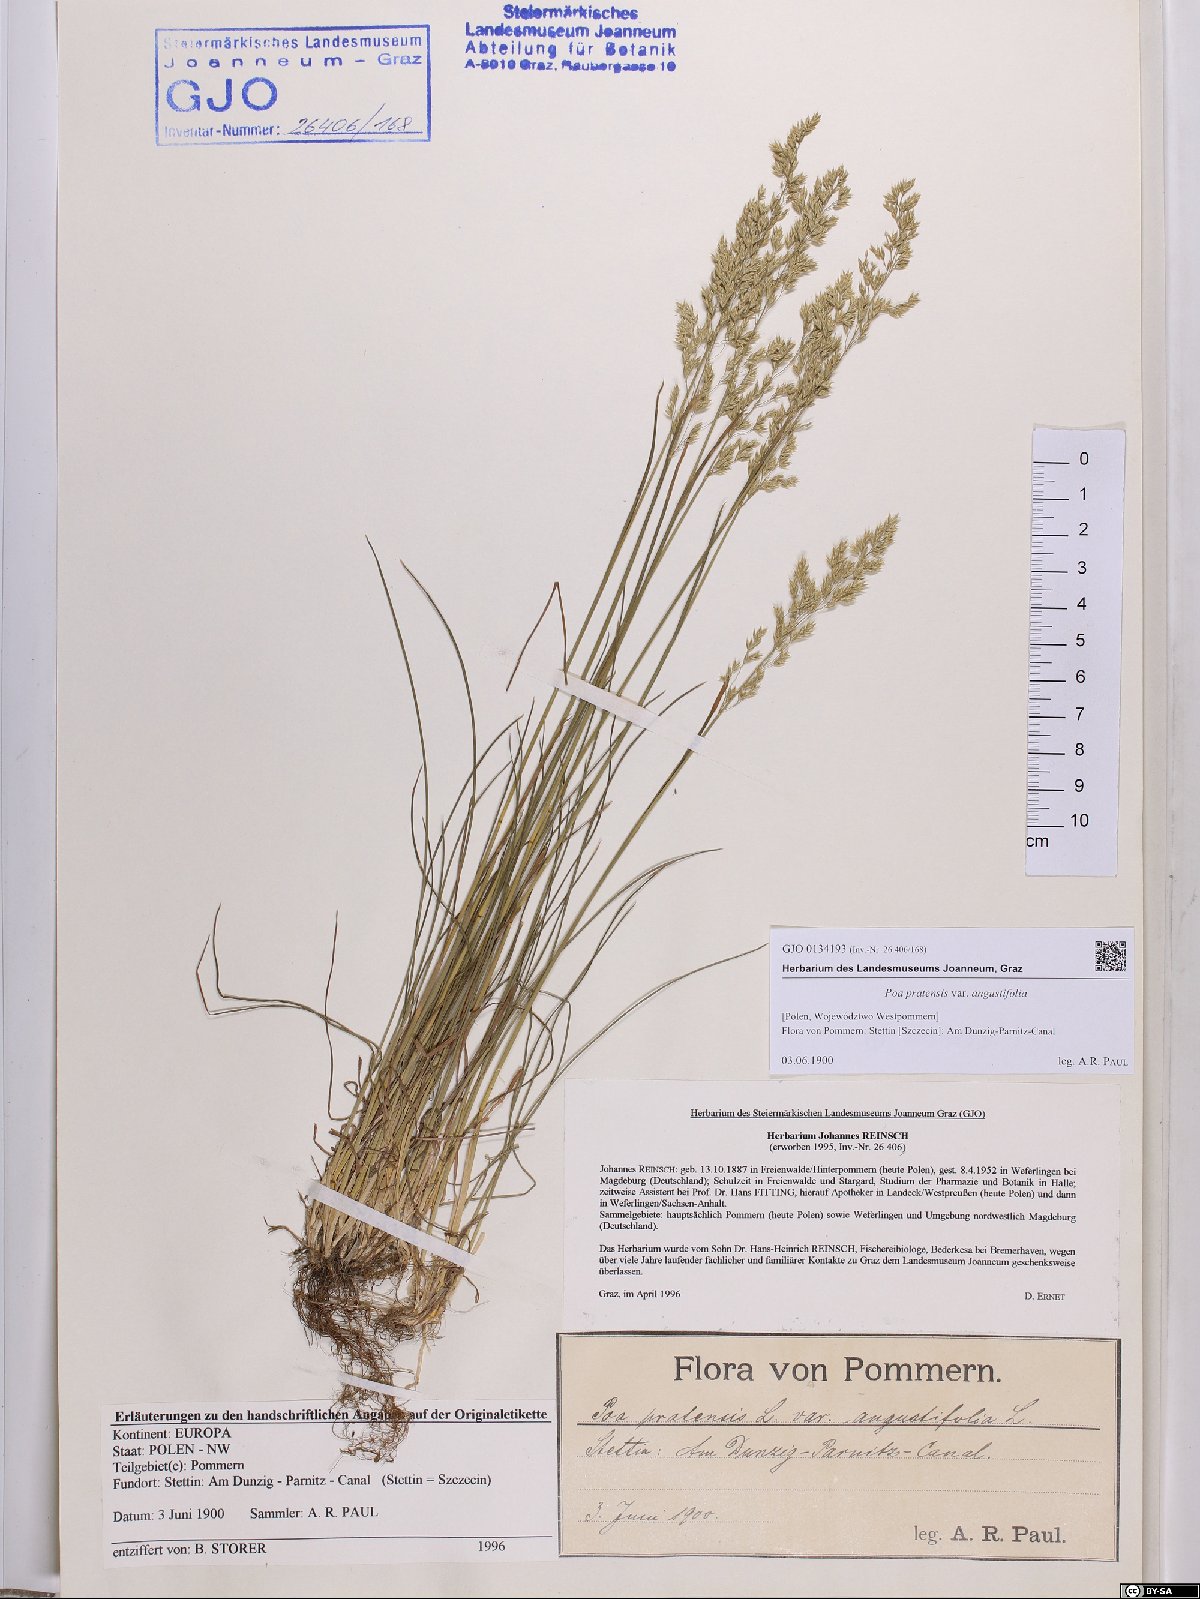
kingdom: Plantae
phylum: Tracheophyta
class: Liliopsida
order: Poales
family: Poaceae
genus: Poa
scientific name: Poa angustifolia
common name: Narrow-leaved meadow-grass
